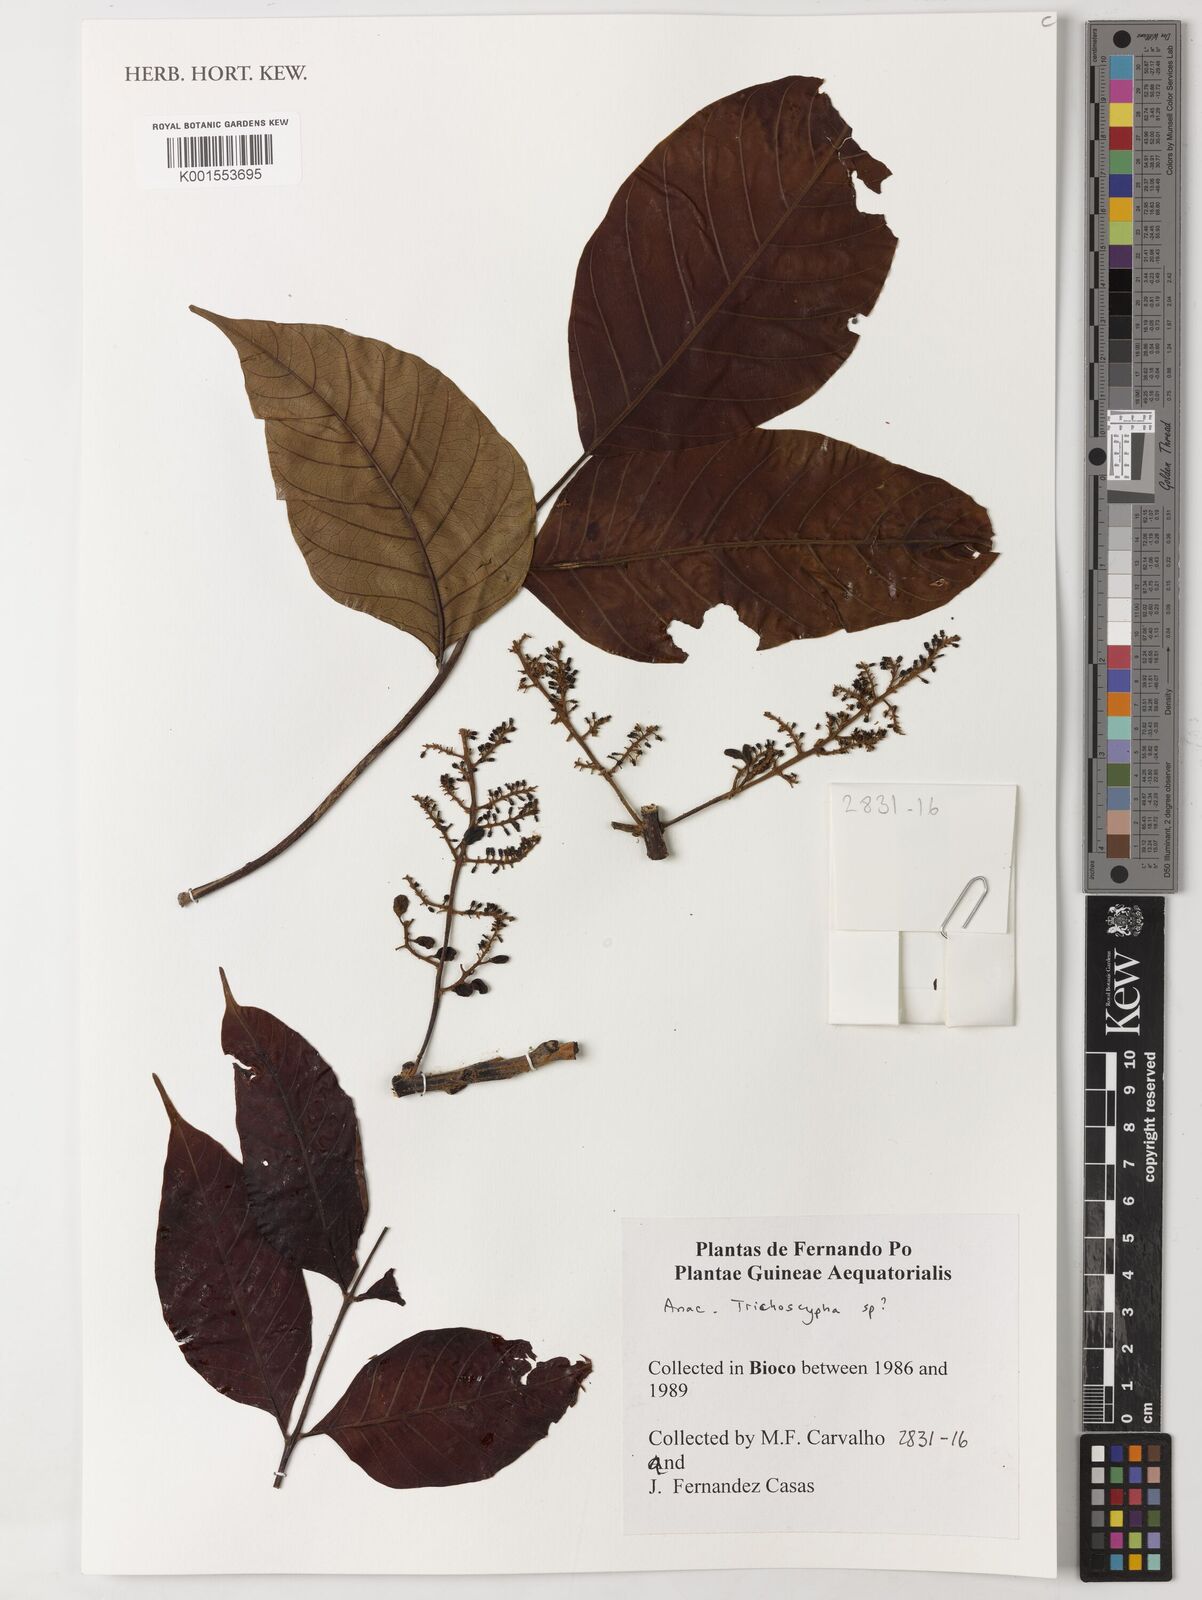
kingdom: Plantae
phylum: Tracheophyta
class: Magnoliopsida
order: Sapindales
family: Anacardiaceae
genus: Trichoscypha
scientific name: Trichoscypha
